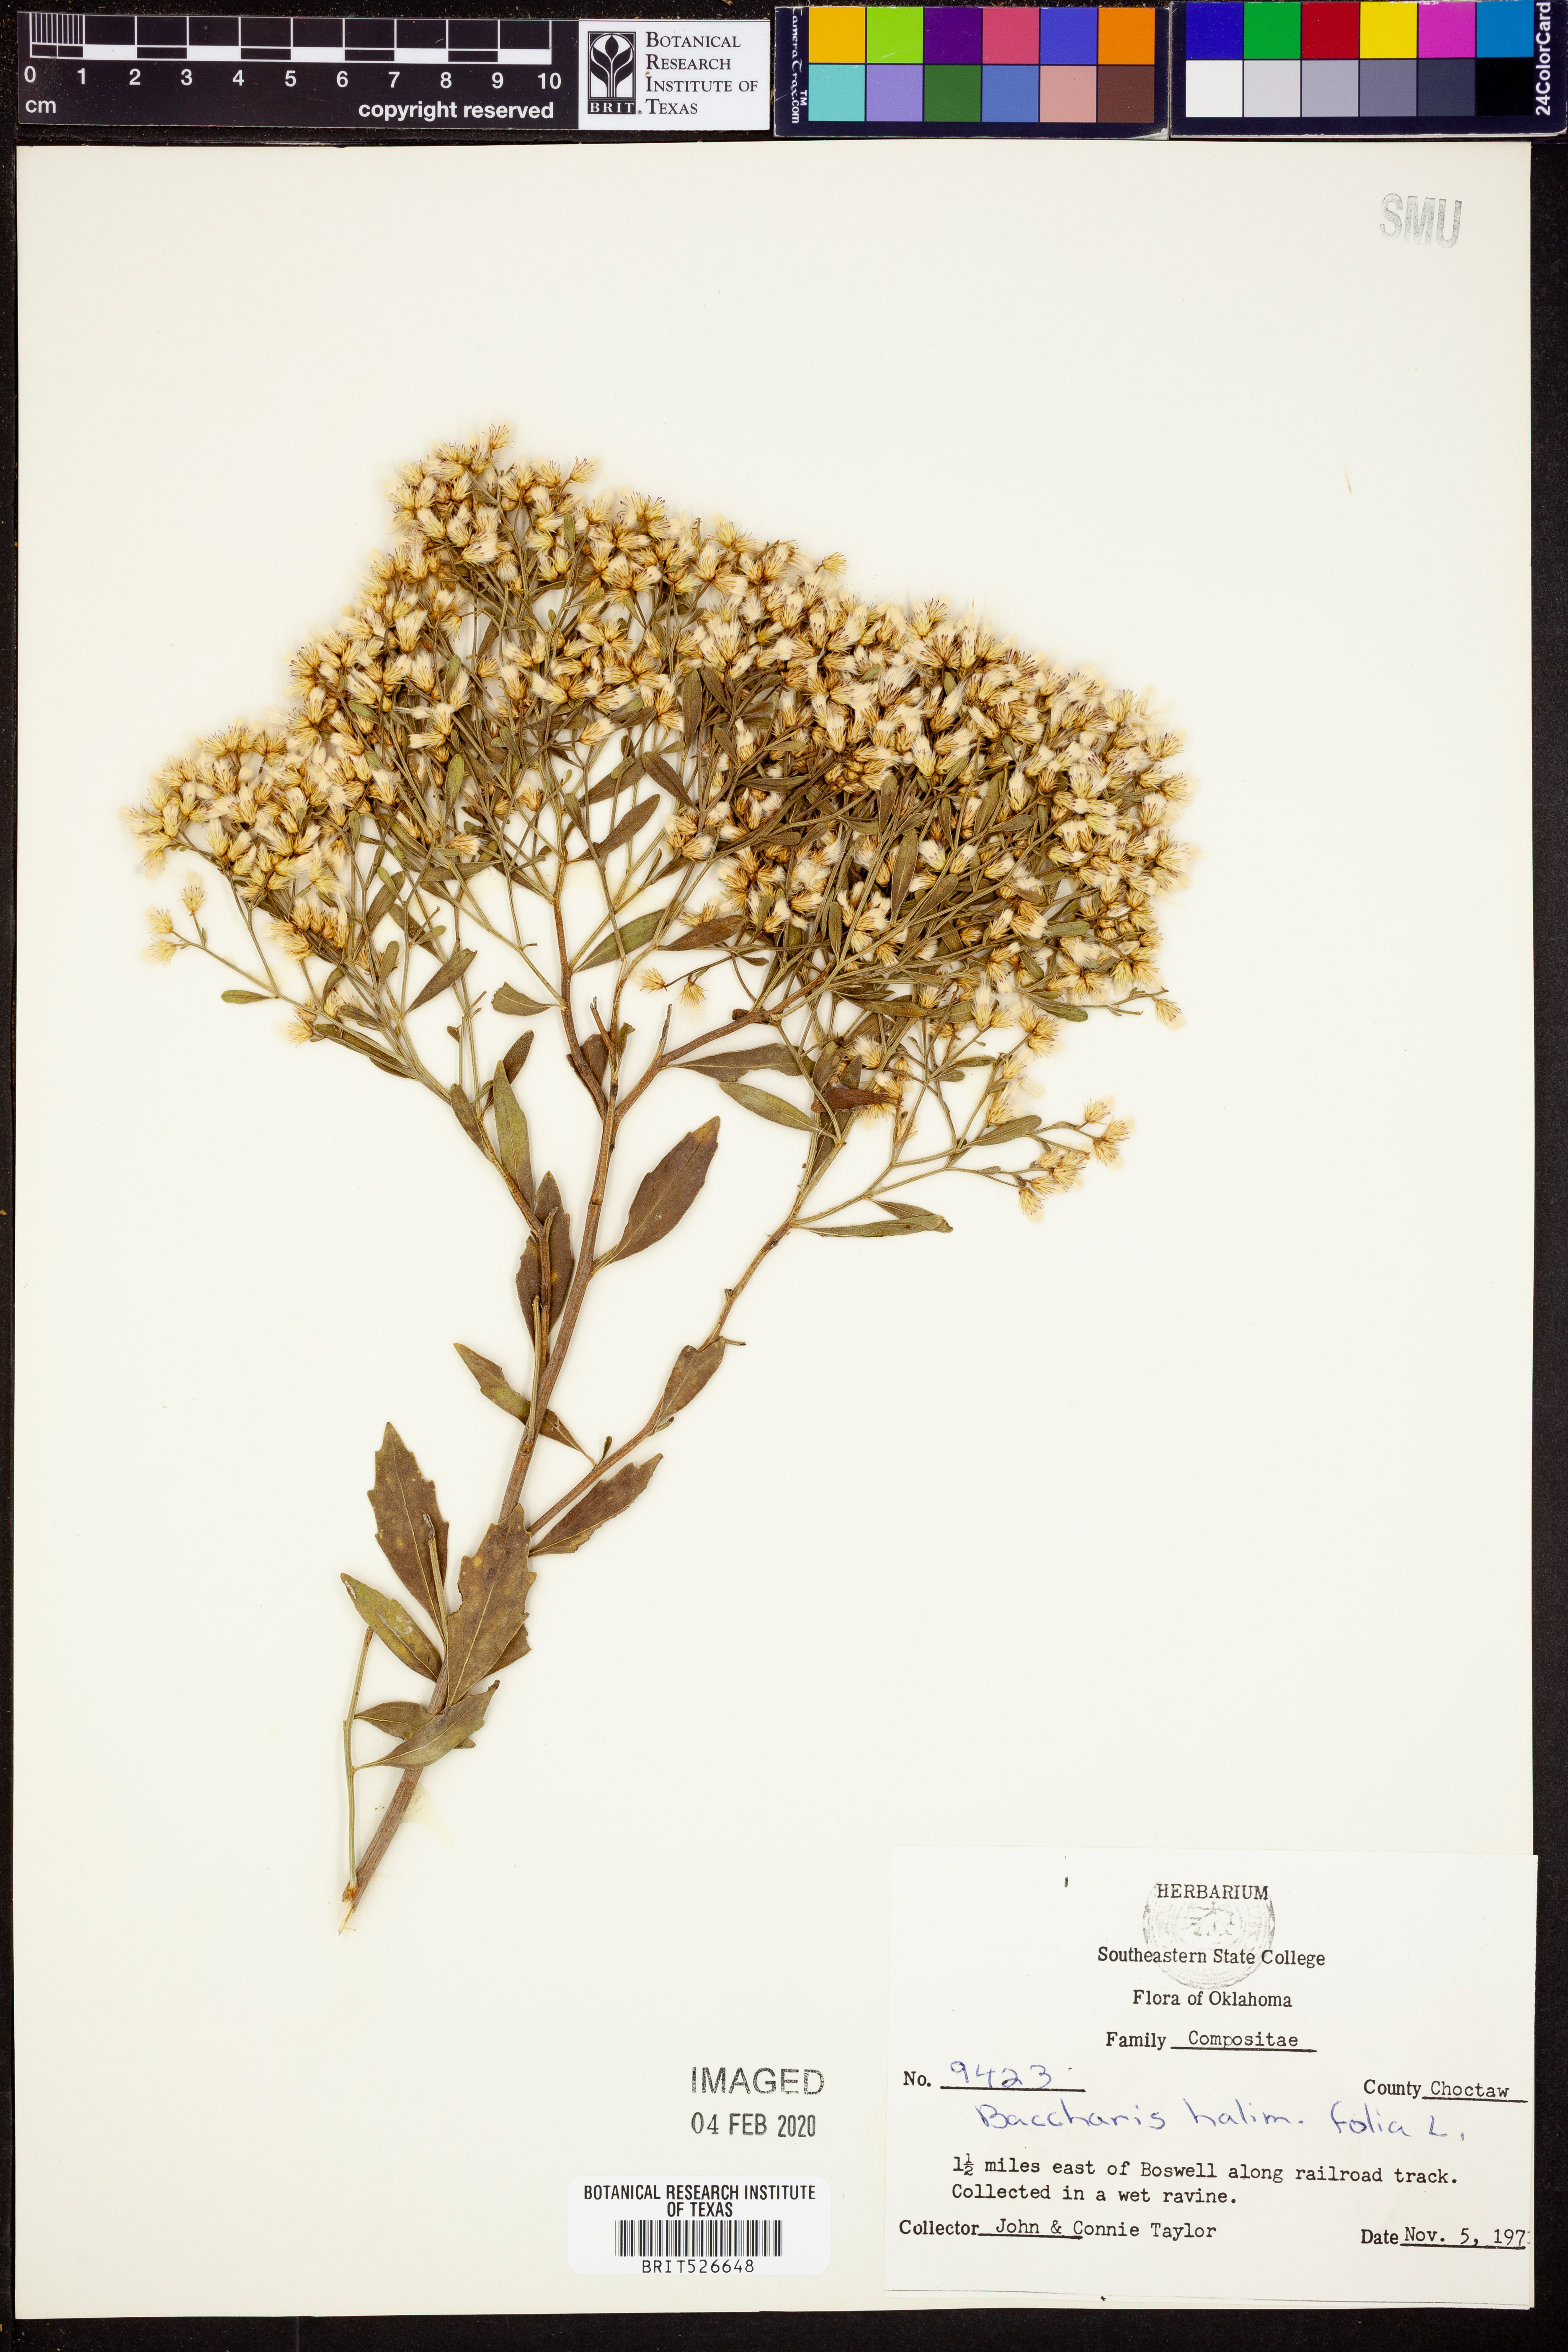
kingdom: Plantae
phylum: Tracheophyta
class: Magnoliopsida
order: Asterales
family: Asteraceae
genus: Nidorella
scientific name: Nidorella ivifolia
